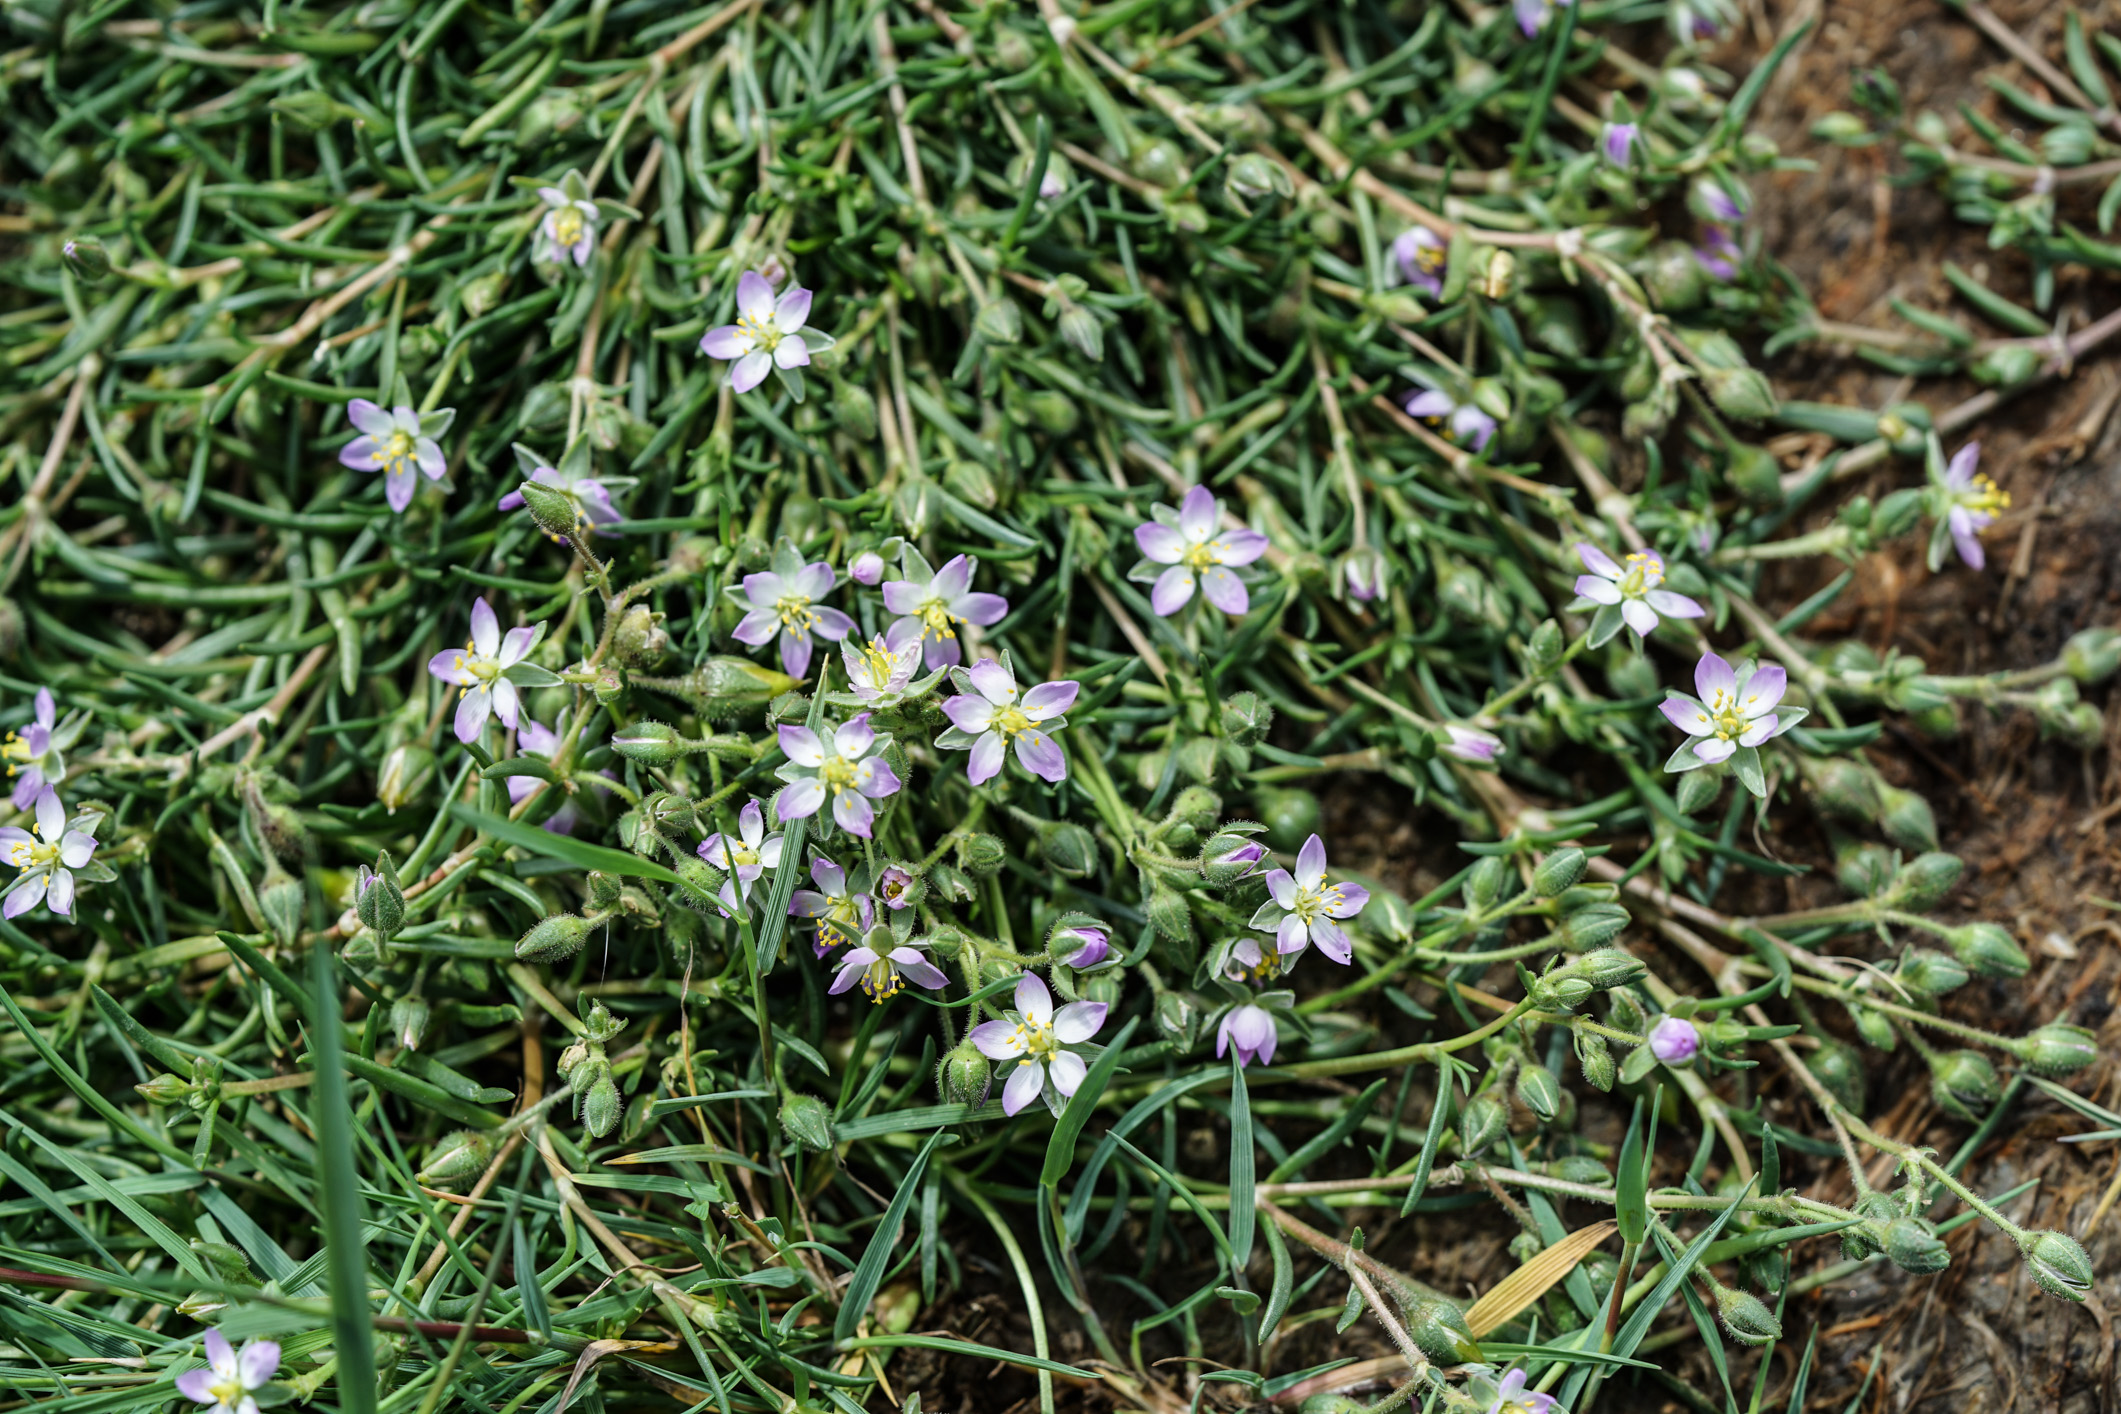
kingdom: Plantae
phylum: Tracheophyta
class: Magnoliopsida
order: Caryophyllales
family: Caryophyllaceae
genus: Spergularia
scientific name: Spergularia media
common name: Greater sea-spurrey
